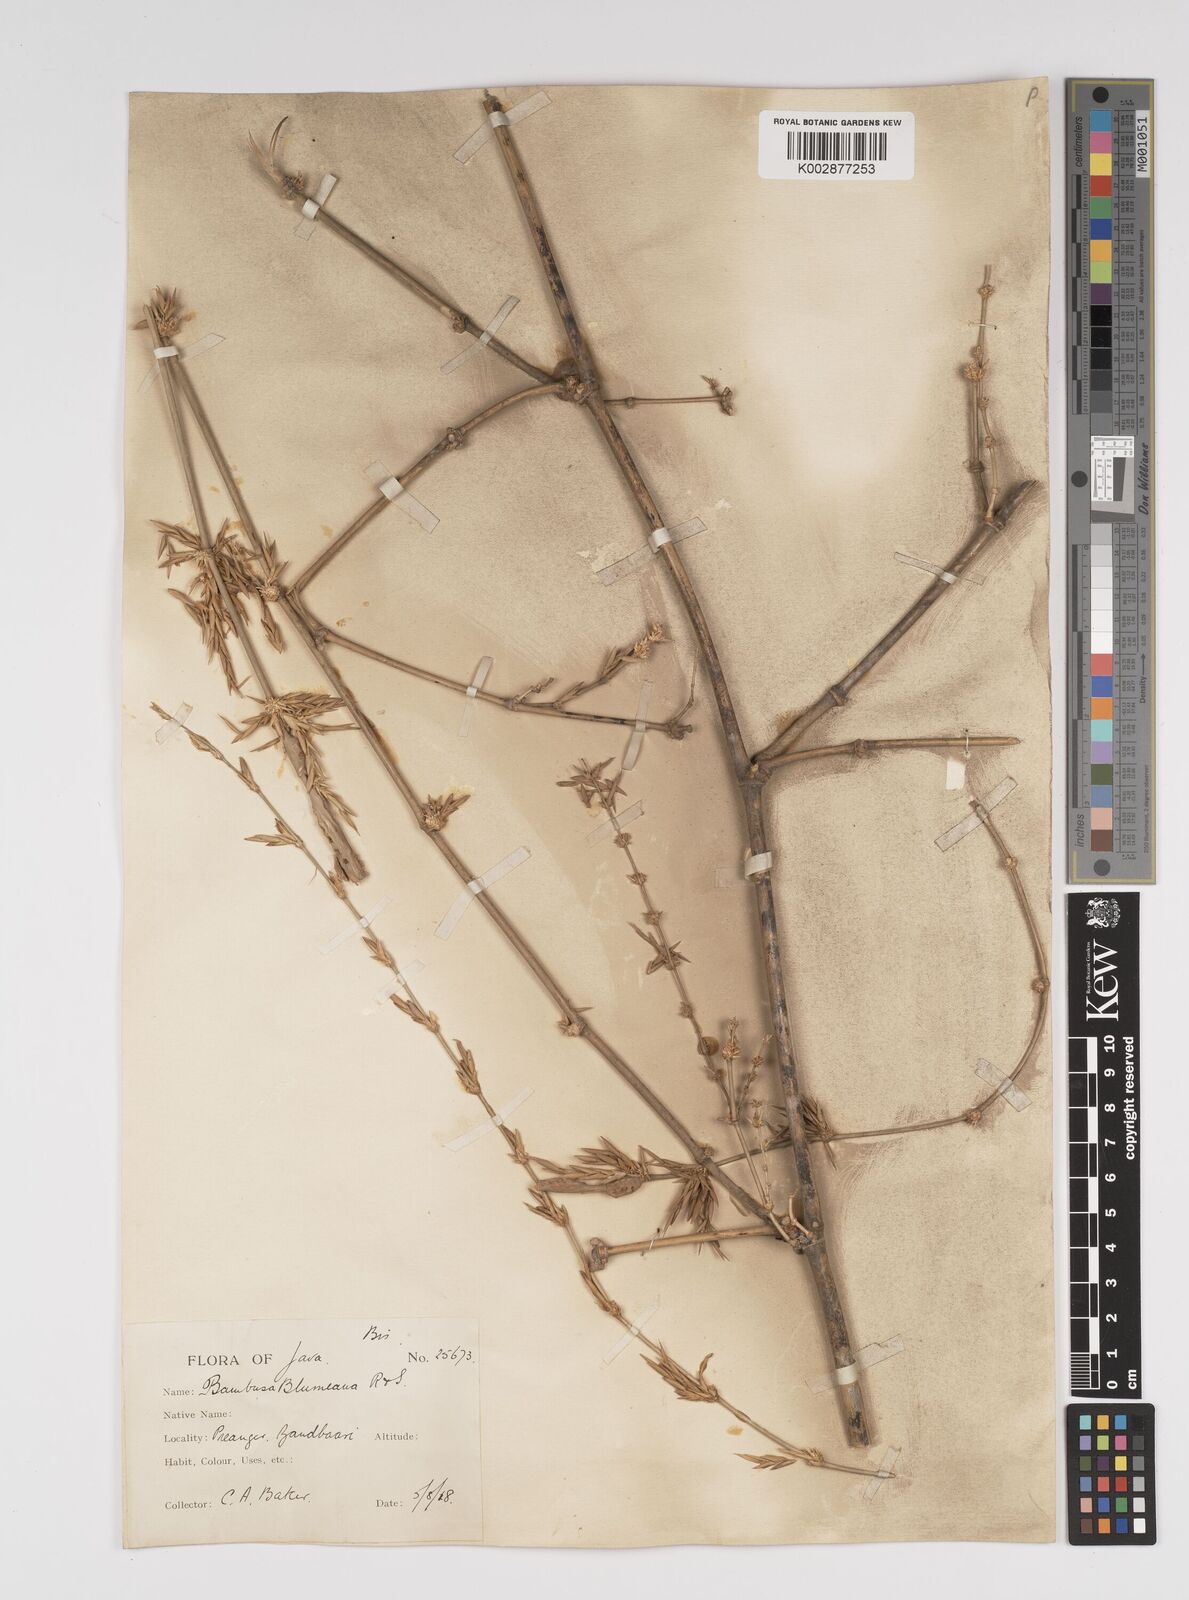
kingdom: Plantae
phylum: Tracheophyta
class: Liliopsida
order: Poales
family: Poaceae
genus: Bambusa
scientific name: Bambusa spinosa
